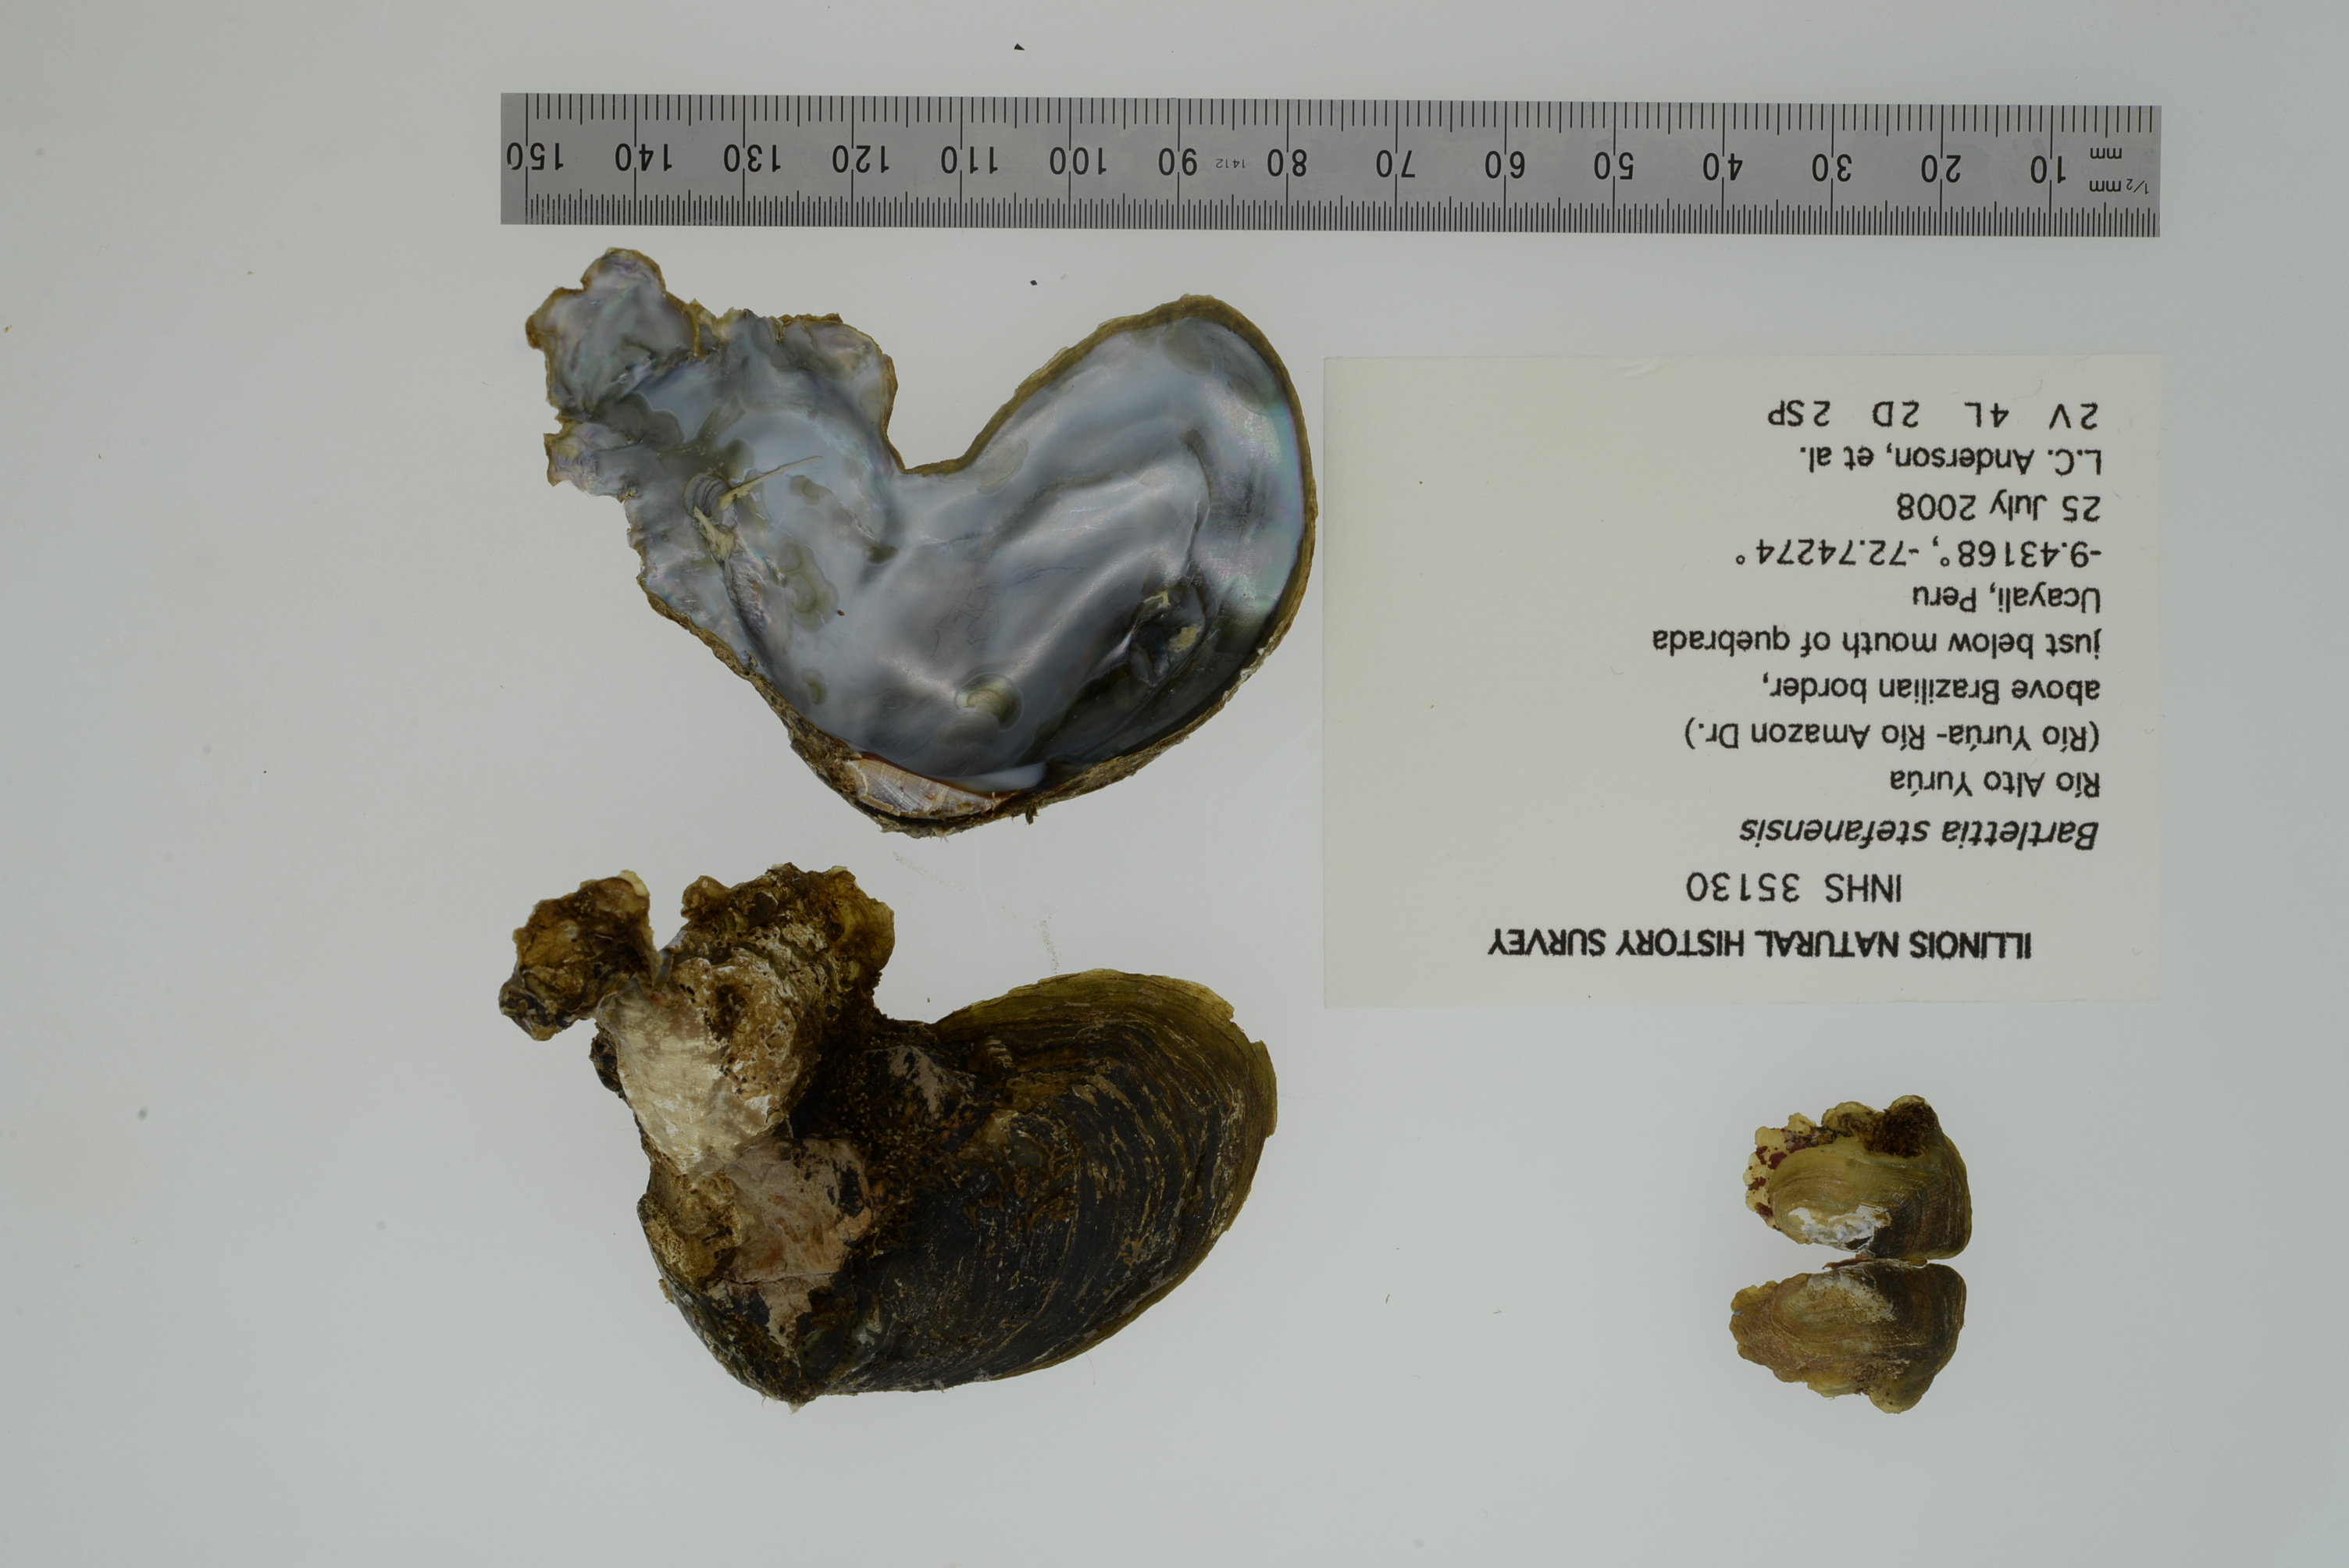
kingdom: Animalia
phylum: Mollusca
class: Bivalvia
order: Unionida
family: Etheriidae
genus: Bartlettia
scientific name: Bartlettia stefanensis
